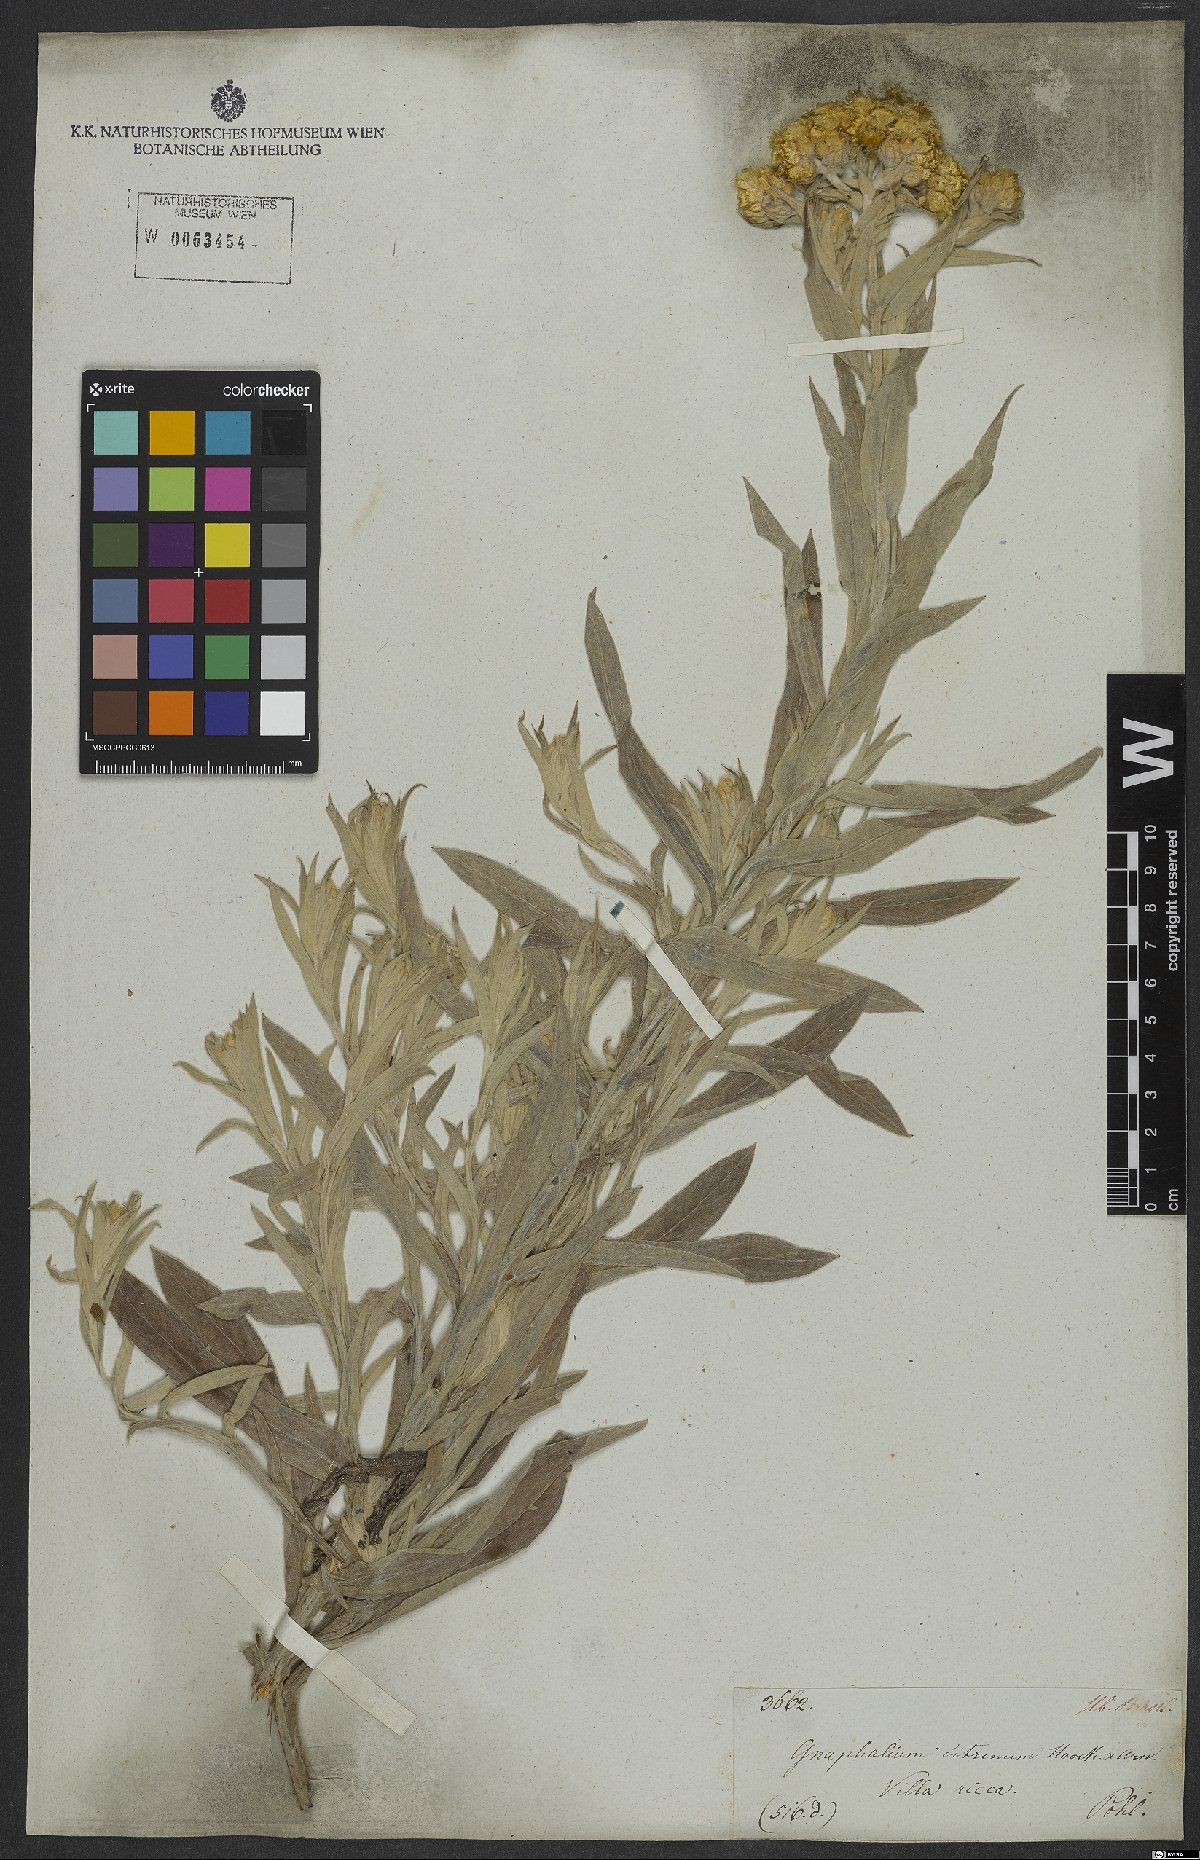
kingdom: Plantae
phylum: Tracheophyta
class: Magnoliopsida
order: Asterales
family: Asteraceae
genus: Pseudognaphalium
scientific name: Pseudognaphalium cheiranthifolium
